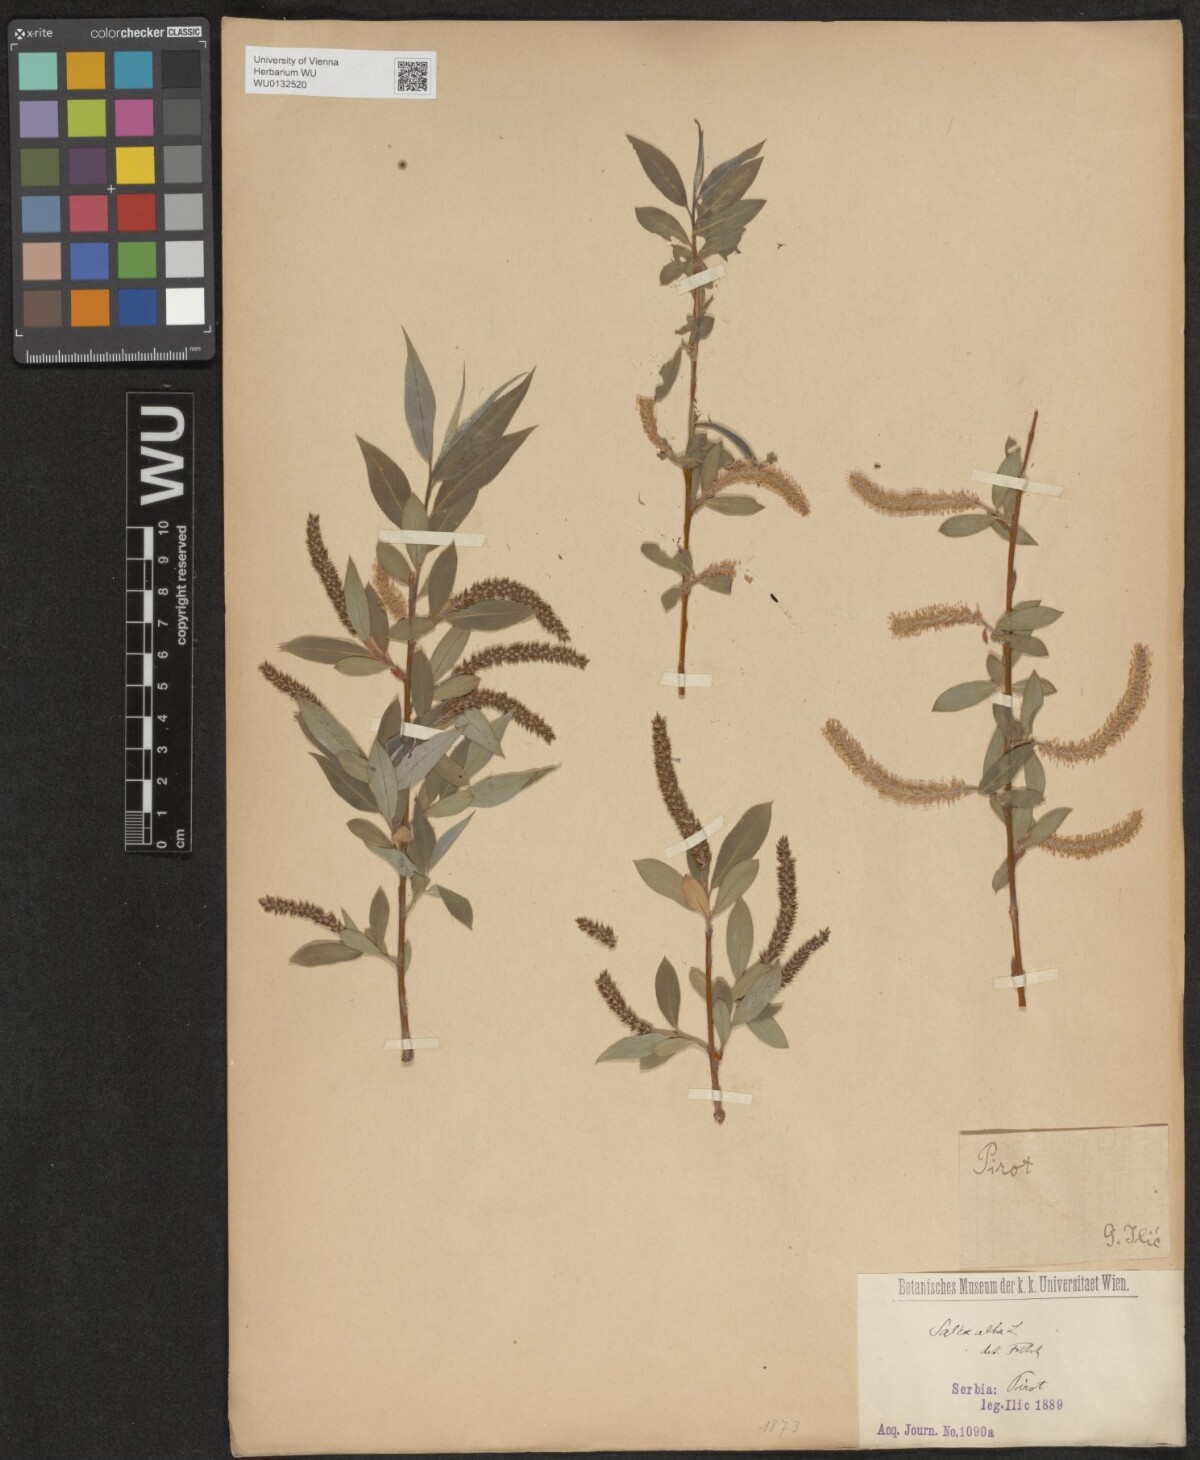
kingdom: Plantae
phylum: Tracheophyta
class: Magnoliopsida
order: Malpighiales
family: Salicaceae
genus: Salix
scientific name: Salix alba
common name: White willow
